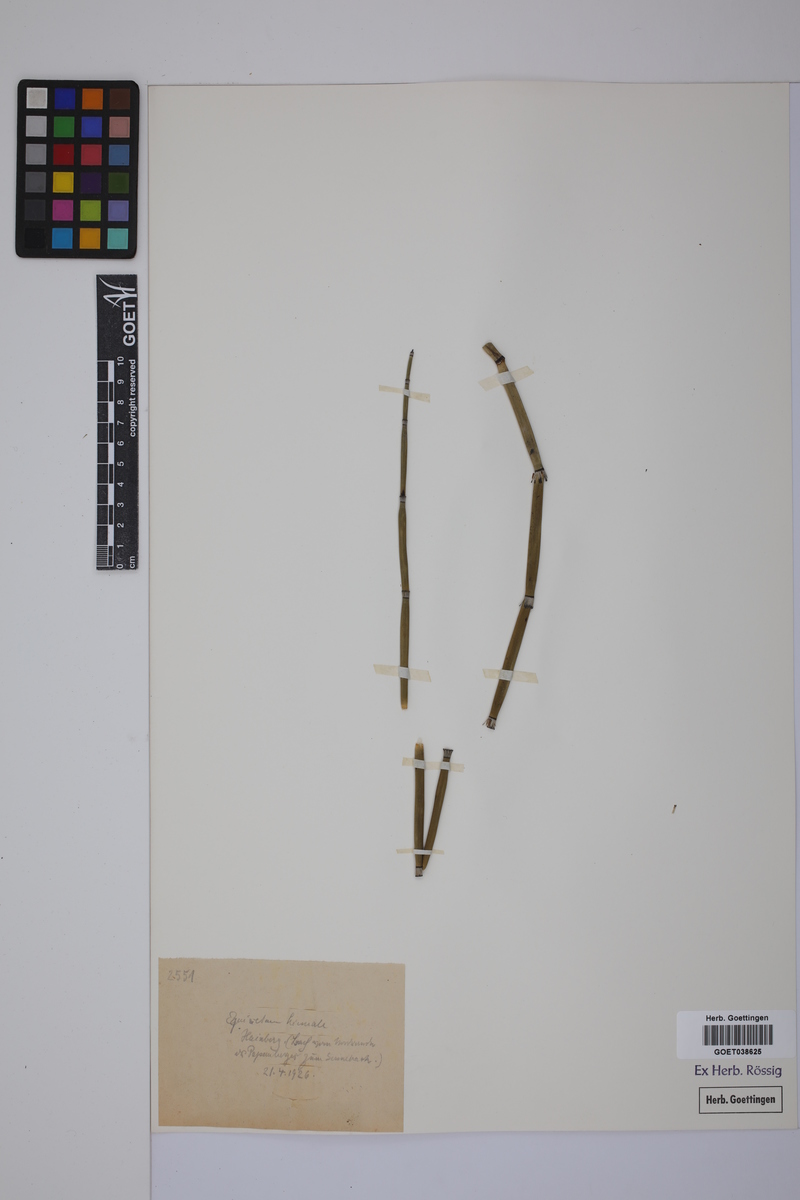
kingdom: Plantae
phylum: Tracheophyta
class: Polypodiopsida
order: Equisetales
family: Equisetaceae
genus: Equisetum
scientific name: Equisetum hyemale
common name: Rough horsetail
